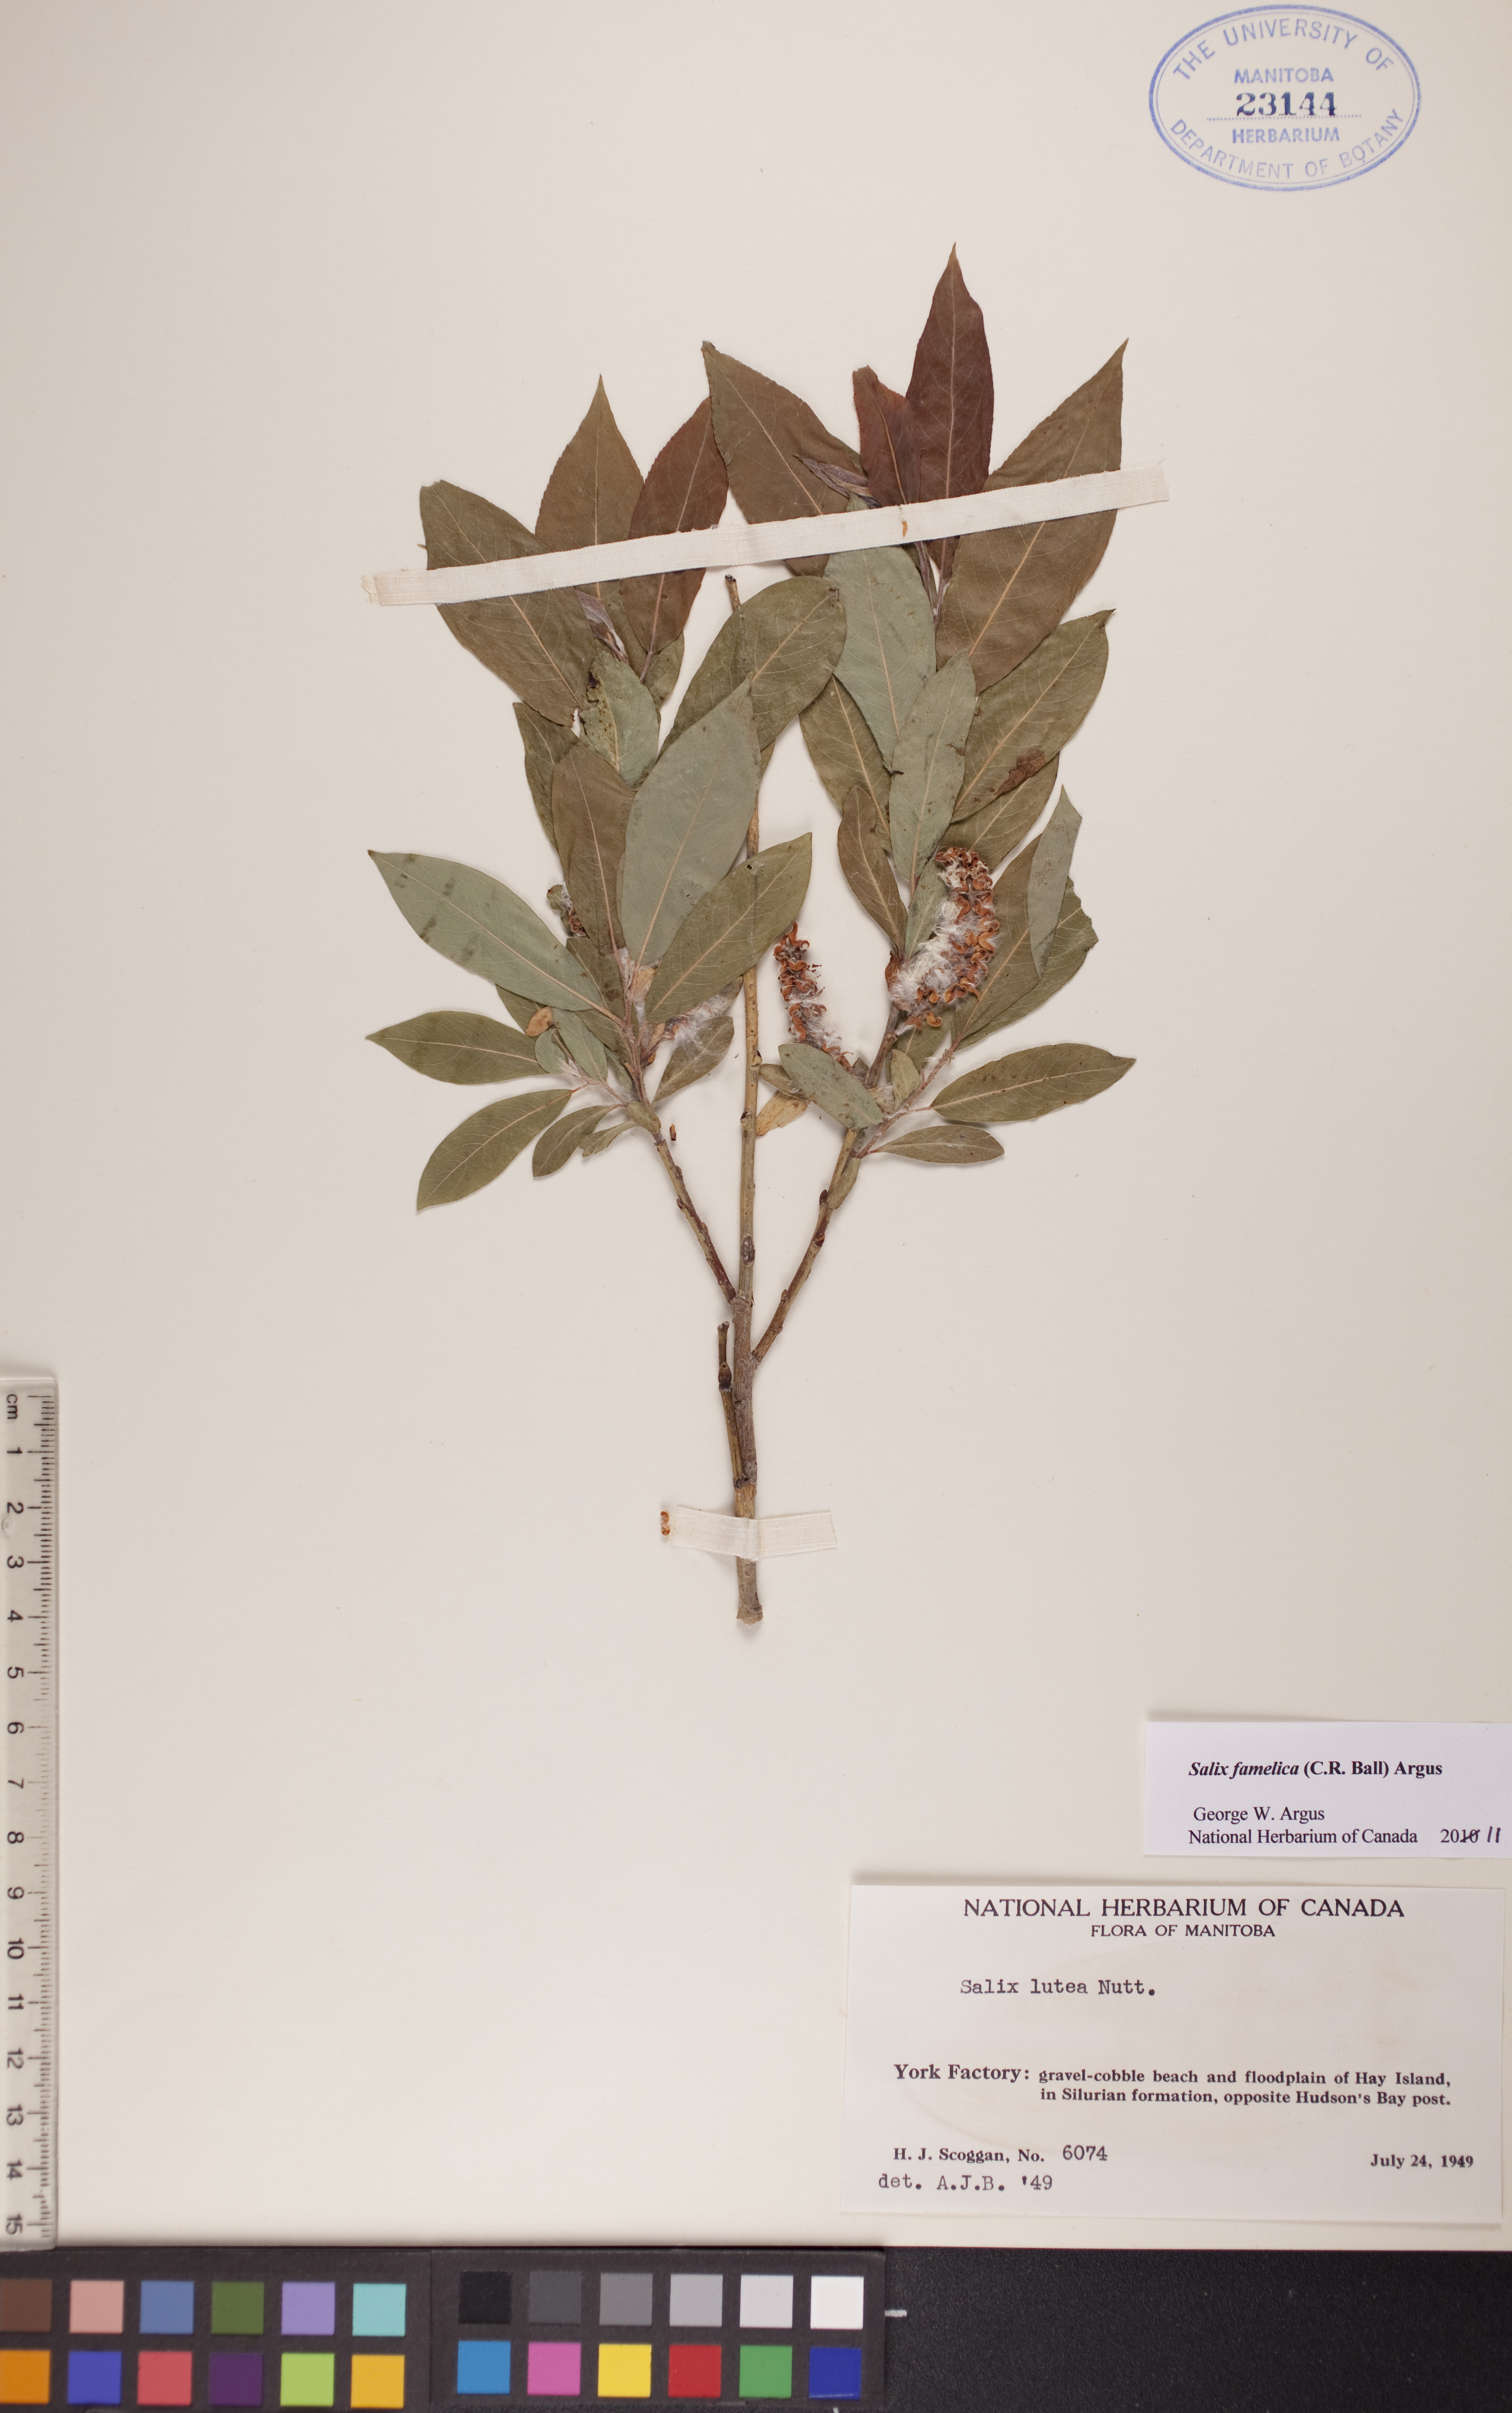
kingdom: Plantae
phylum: Tracheophyta
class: Magnoliopsida
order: Malpighiales
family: Salicaceae
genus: Salix
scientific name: Salix famelica
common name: Hungry willow
